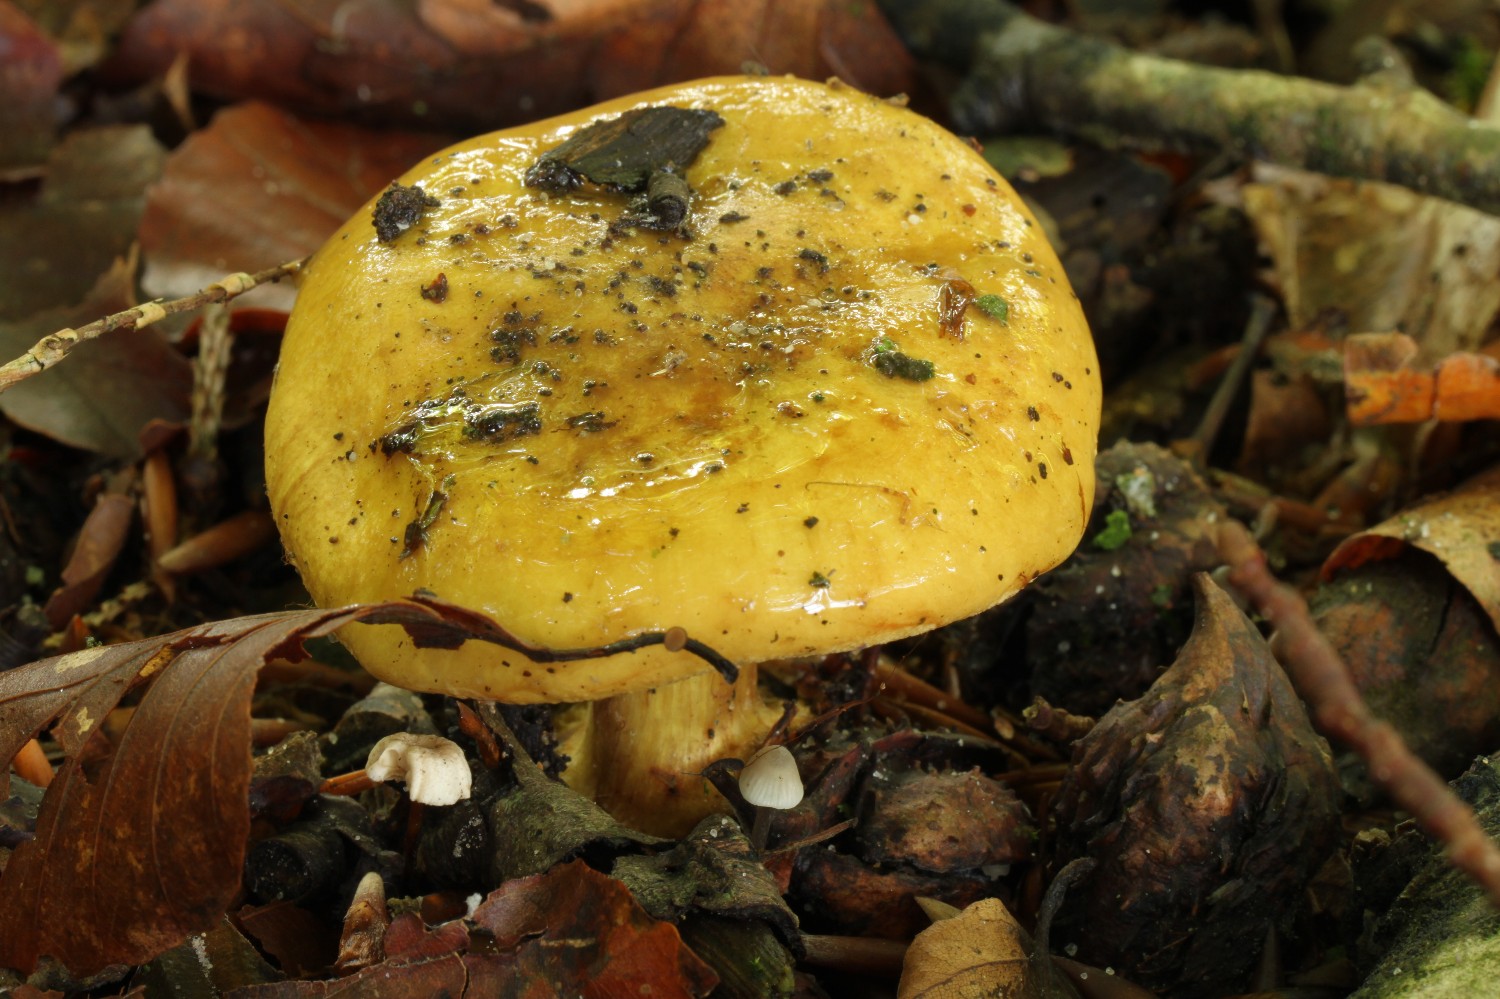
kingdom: Fungi
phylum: Basidiomycota
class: Agaricomycetes
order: Agaricales
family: Cortinariaceae
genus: Calonarius
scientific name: Calonarius citrinus
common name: citrongul slørhat
